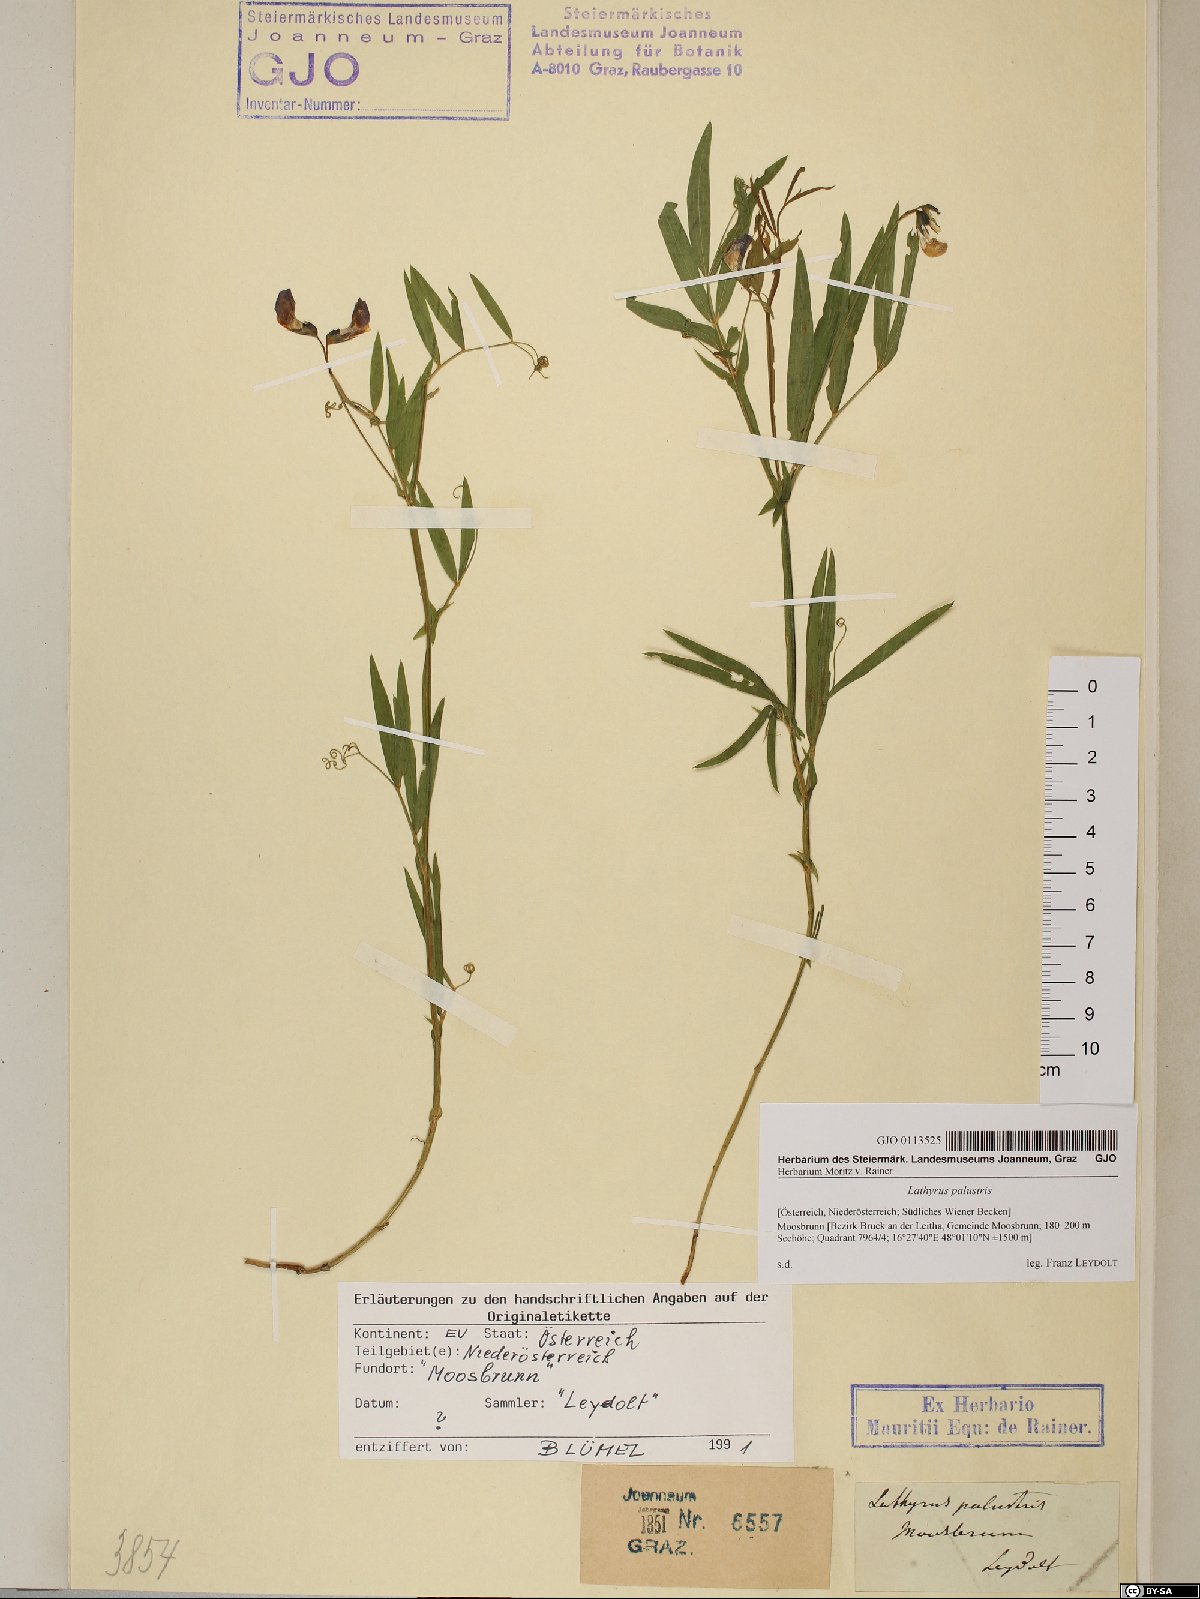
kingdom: Plantae
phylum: Tracheophyta
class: Magnoliopsida
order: Fabales
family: Fabaceae
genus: Lathyrus
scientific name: Lathyrus palustris
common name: Marsh pea
